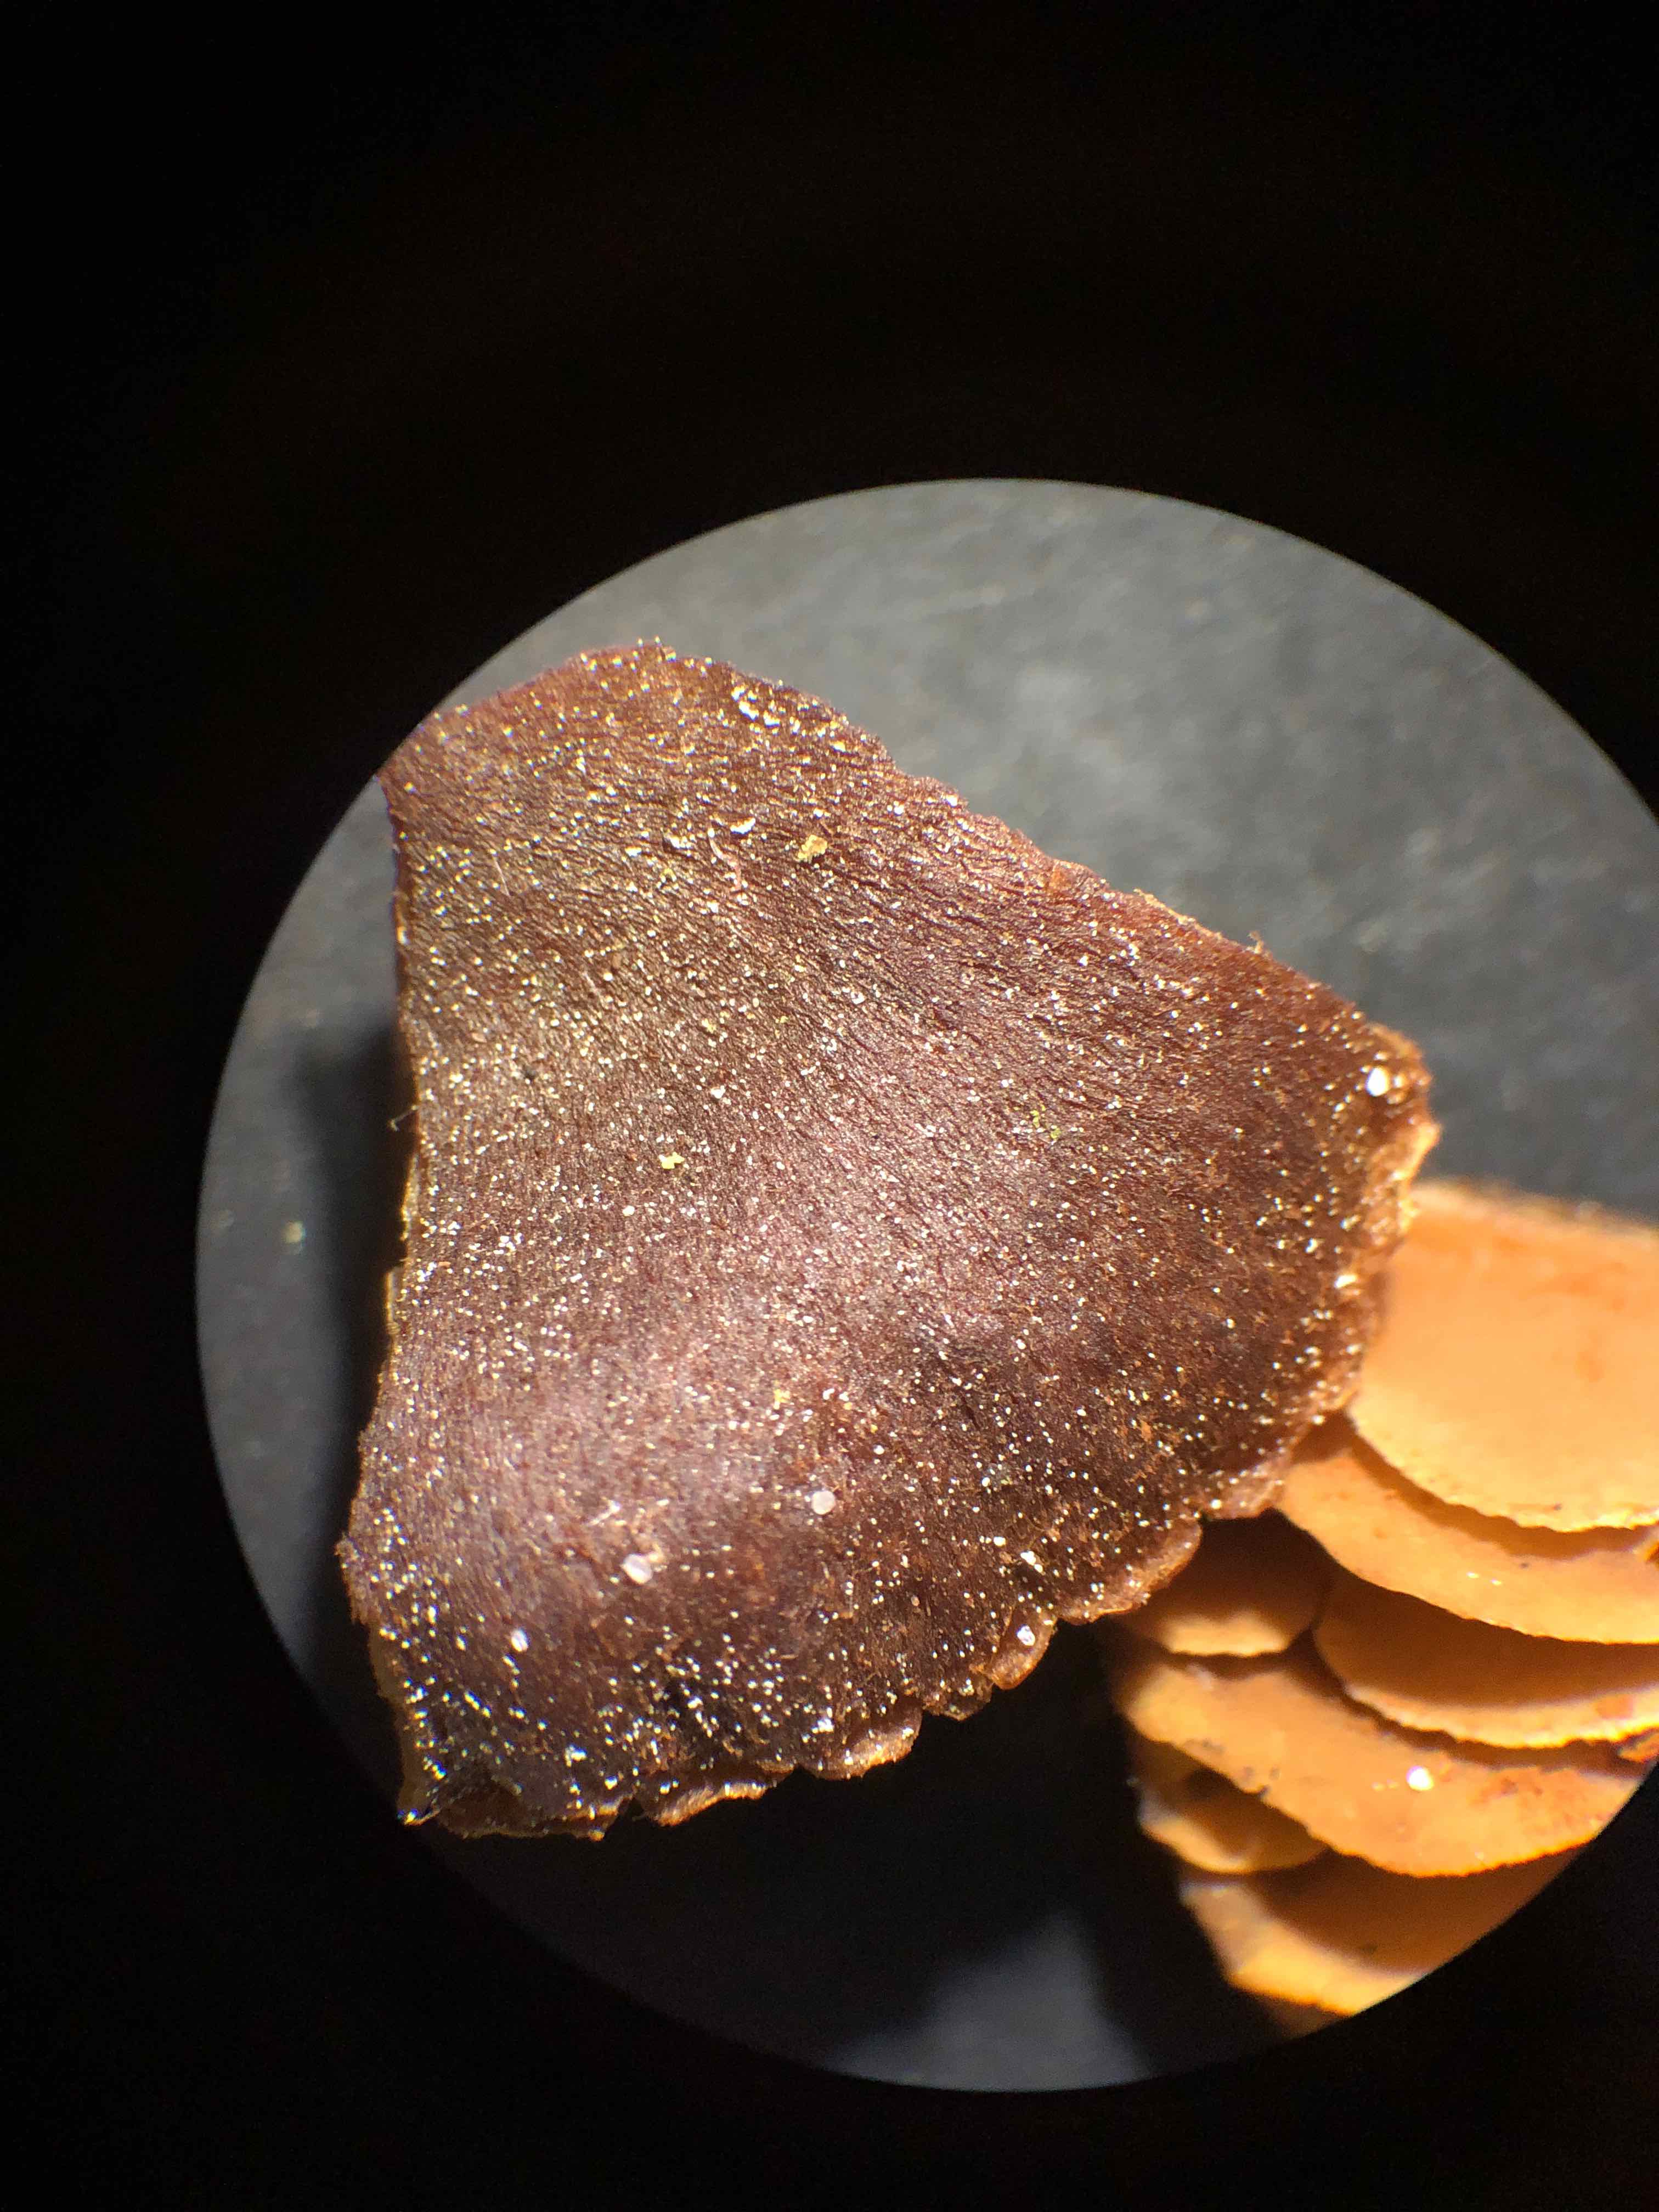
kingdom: Fungi
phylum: Basidiomycota
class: Agaricomycetes
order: Agaricales
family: Cortinariaceae
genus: Cortinarius
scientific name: Cortinarius
